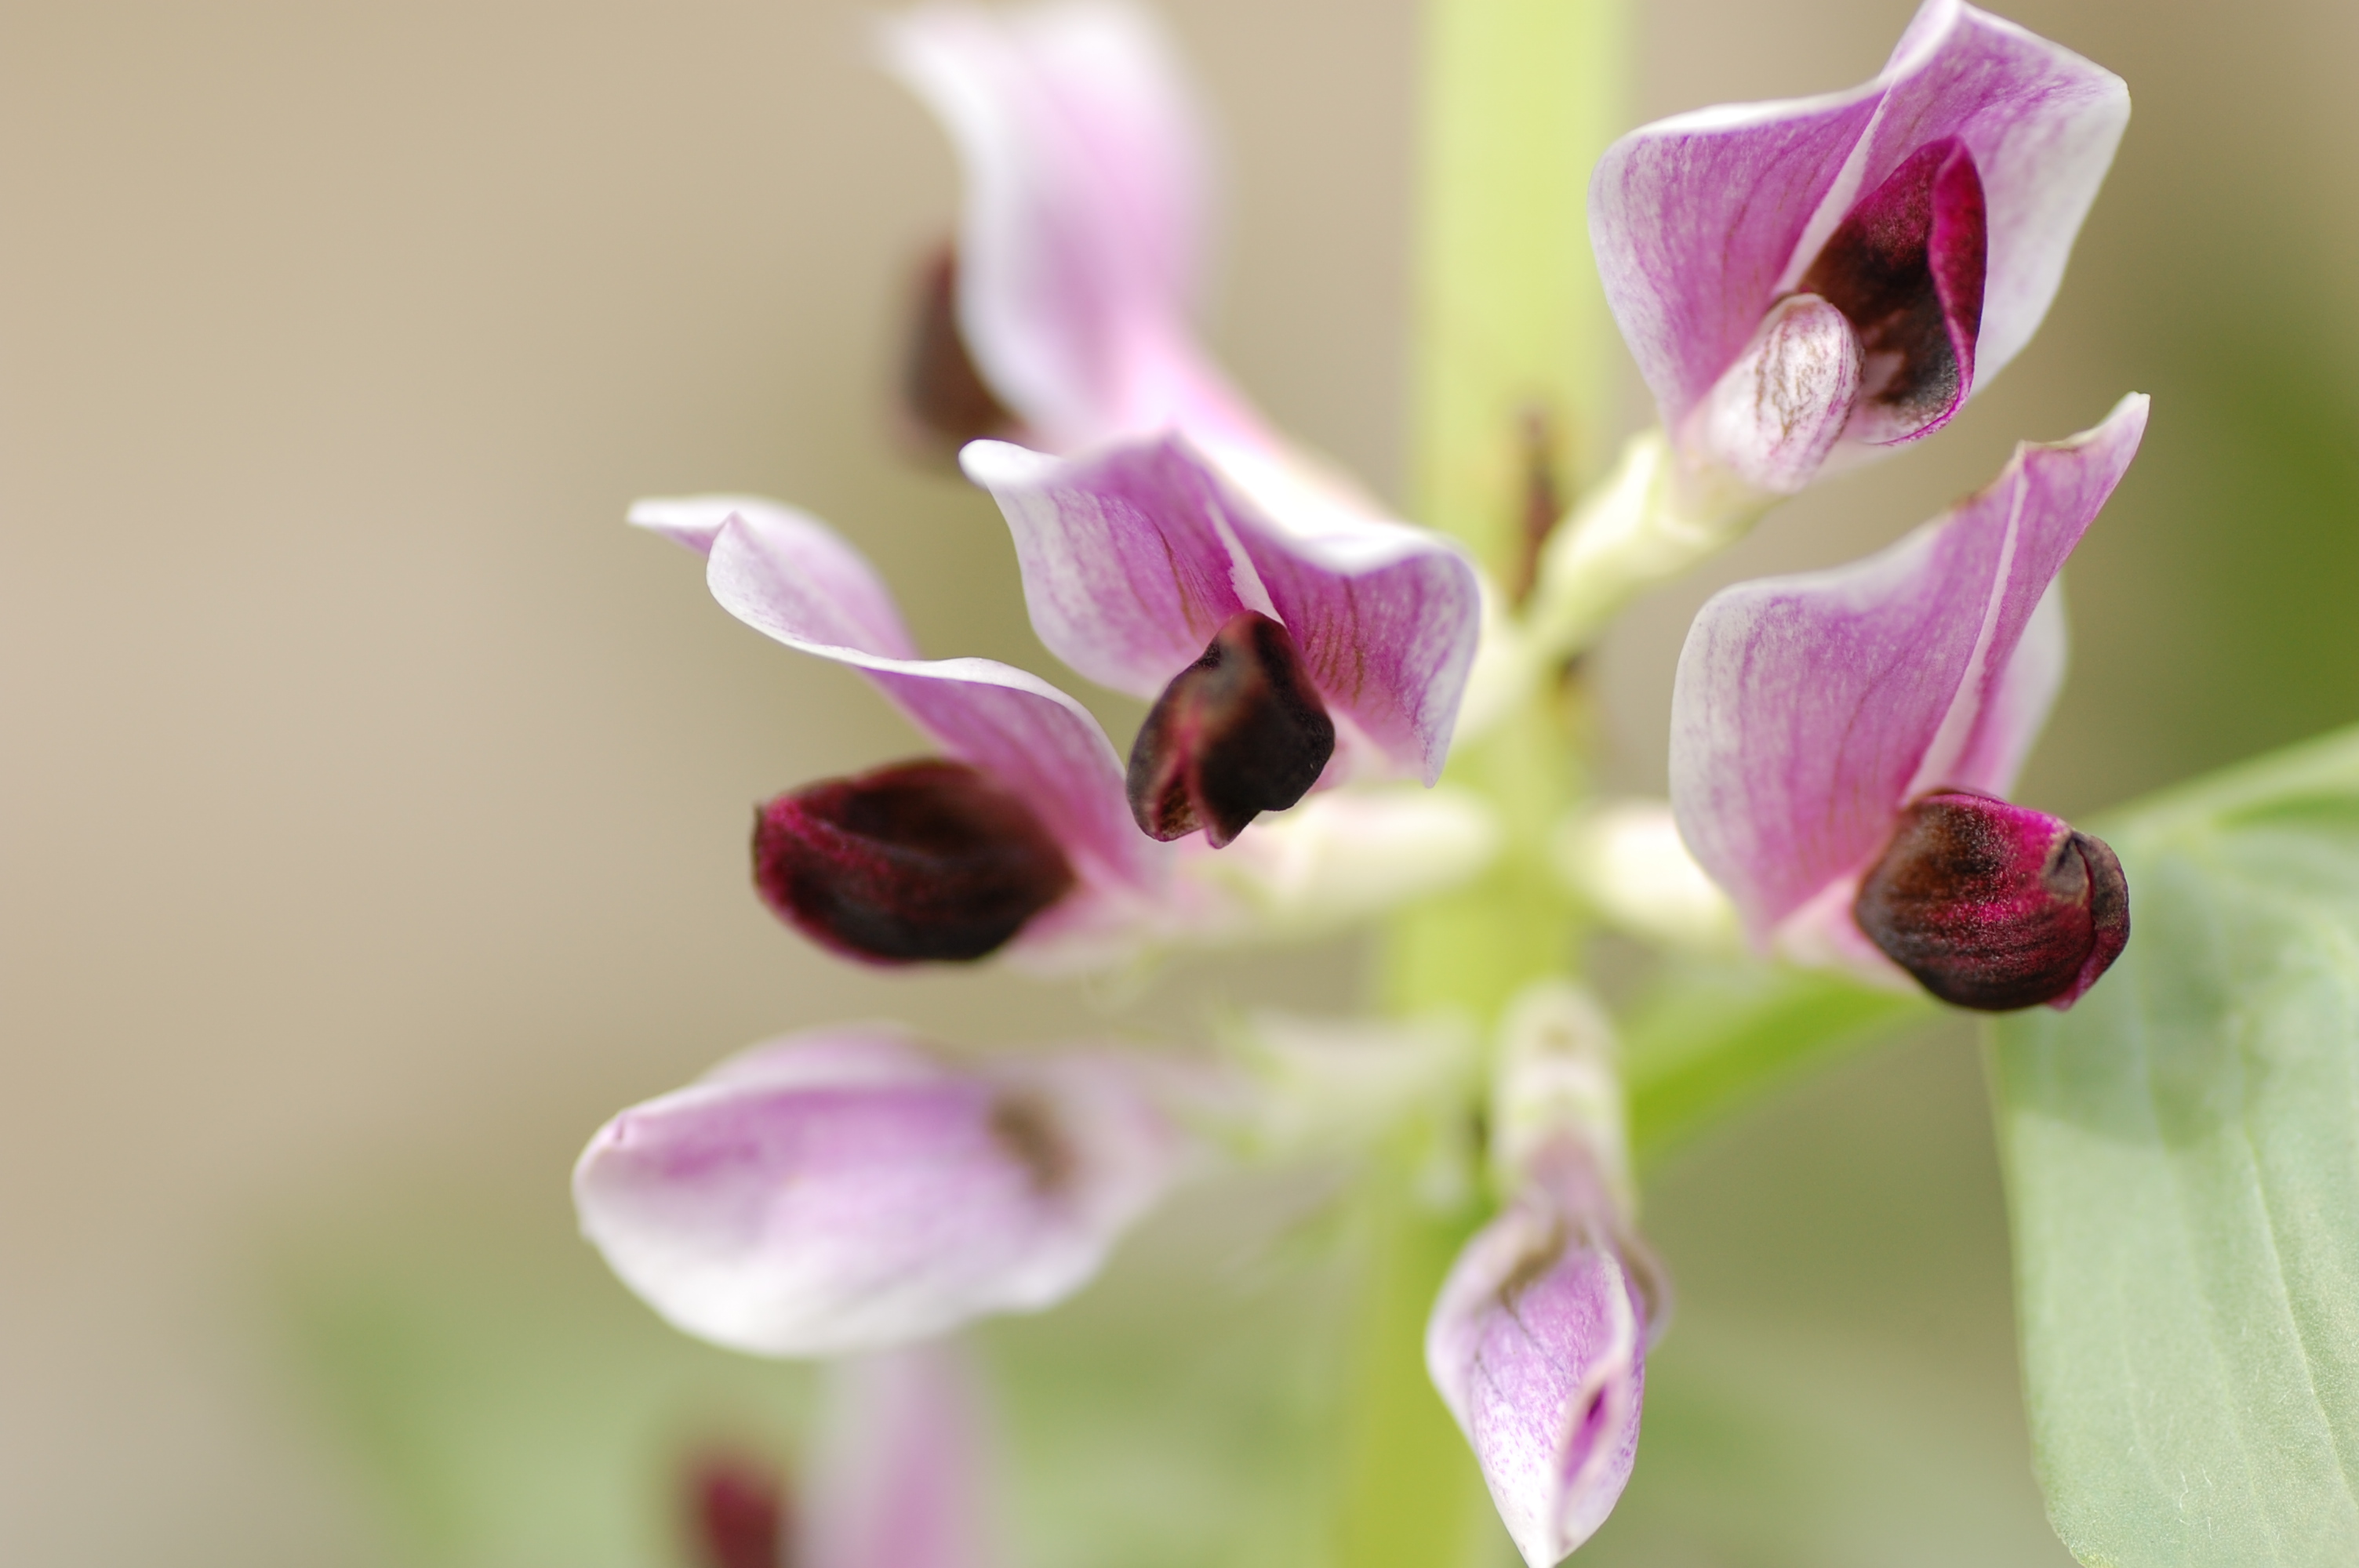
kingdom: Plantae
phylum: Tracheophyta
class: Magnoliopsida
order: Fabales
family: Fabaceae
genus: Vicia
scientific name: Vicia faba
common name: Broad bean
